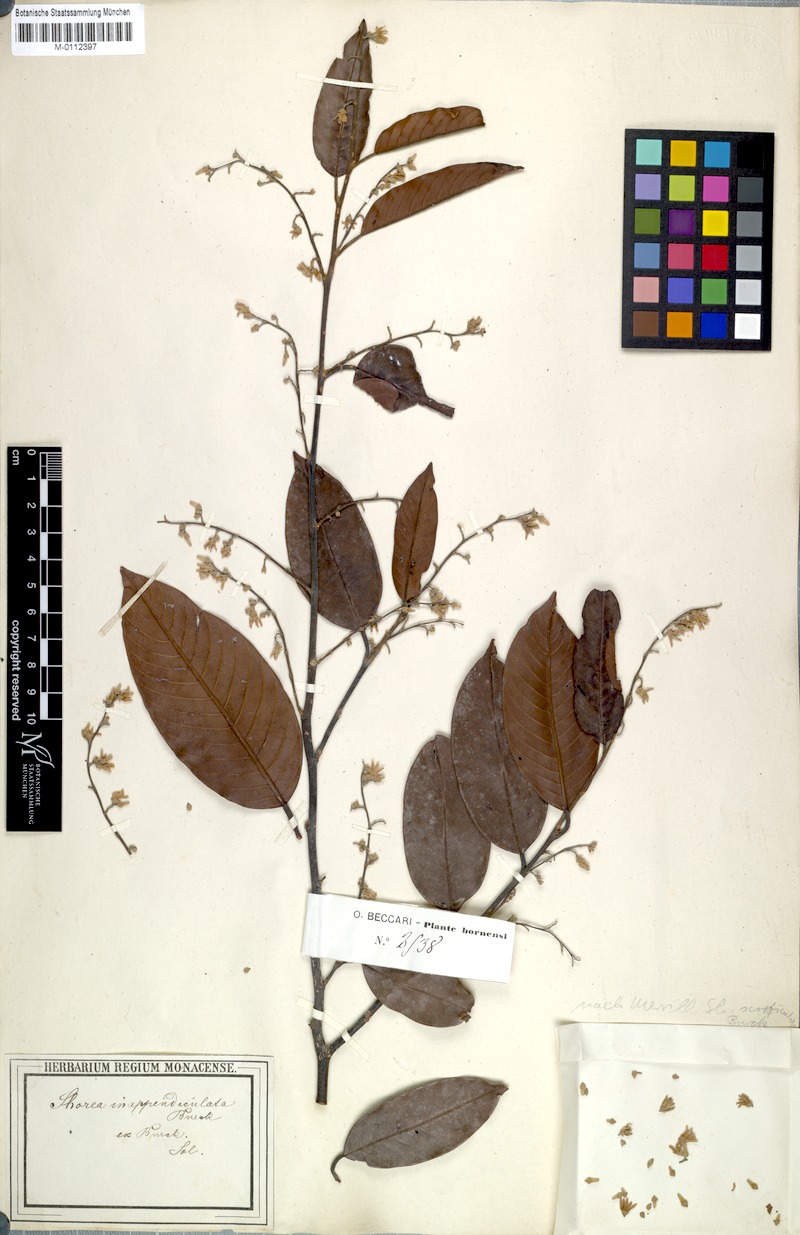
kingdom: Plantae
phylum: Tracheophyta
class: Magnoliopsida
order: Malvales
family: Dipterocarpaceae
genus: Shorea
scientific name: Shorea scrobiculata
